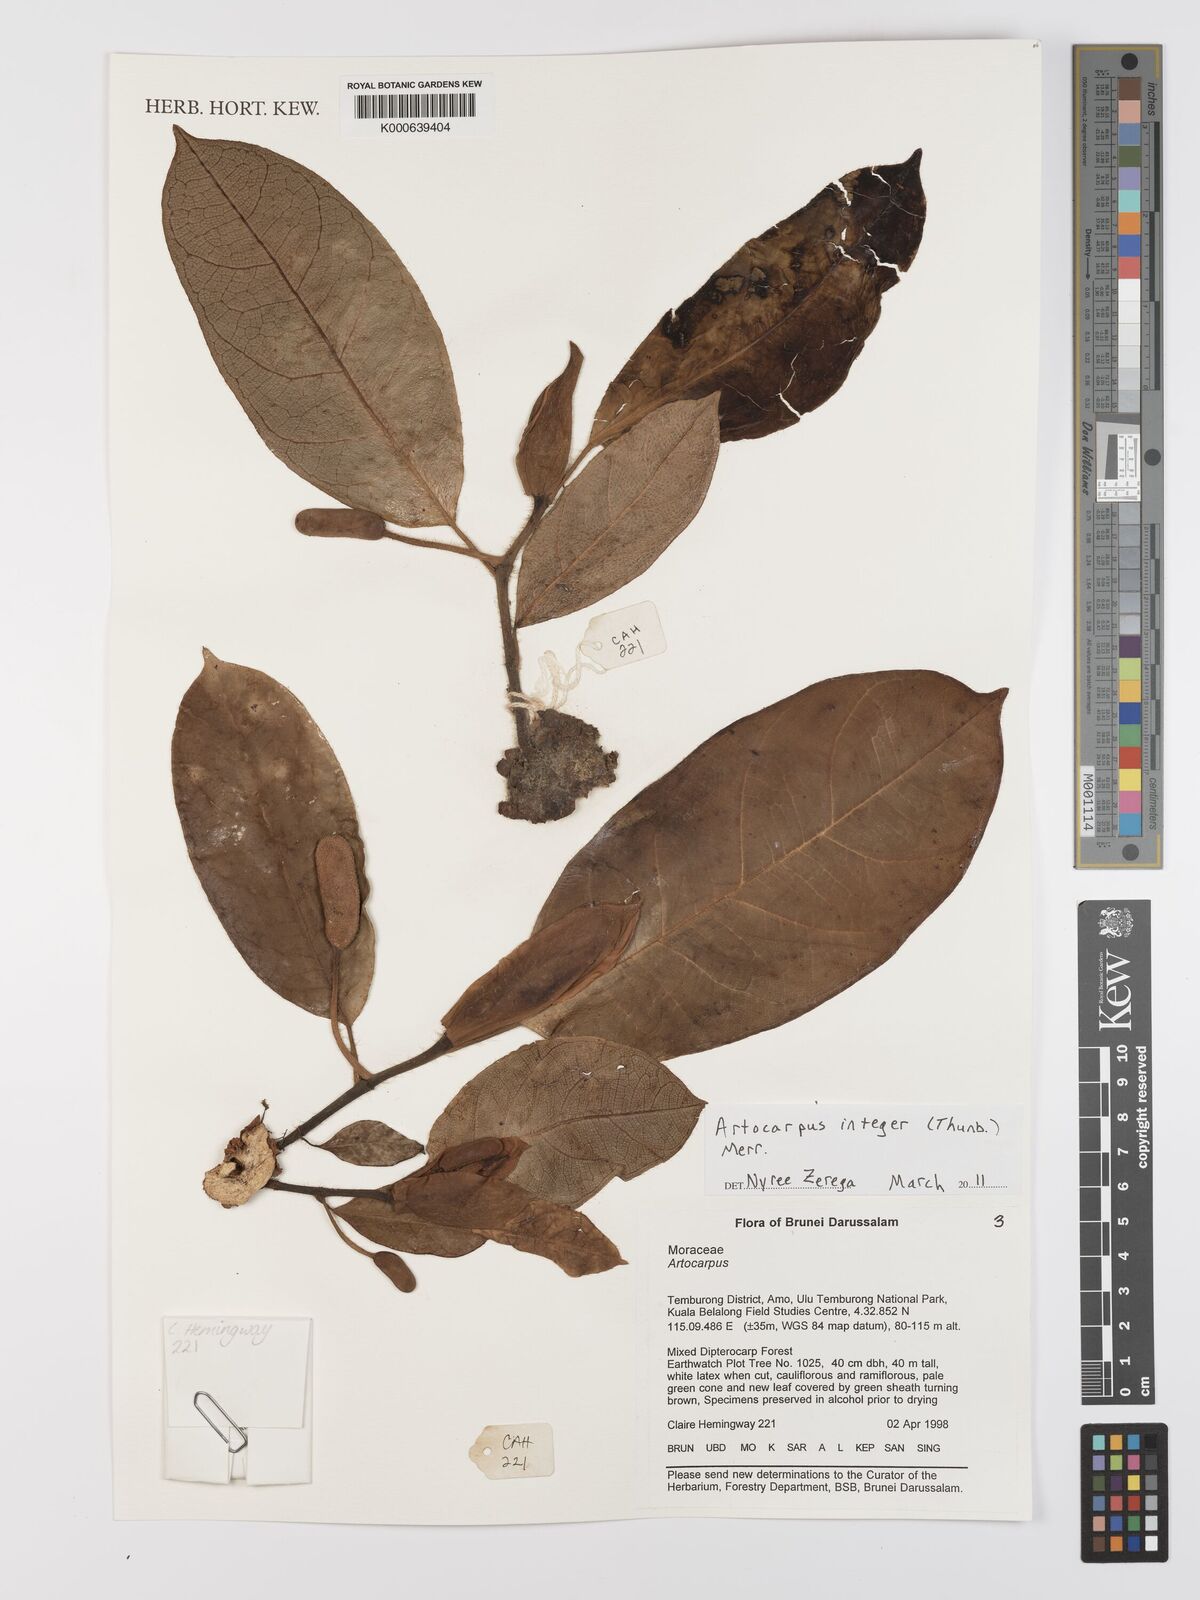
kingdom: Plantae
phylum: Tracheophyta
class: Magnoliopsida
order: Rosales
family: Moraceae
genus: Artocarpus
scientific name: Artocarpus integer
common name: Chempedak
